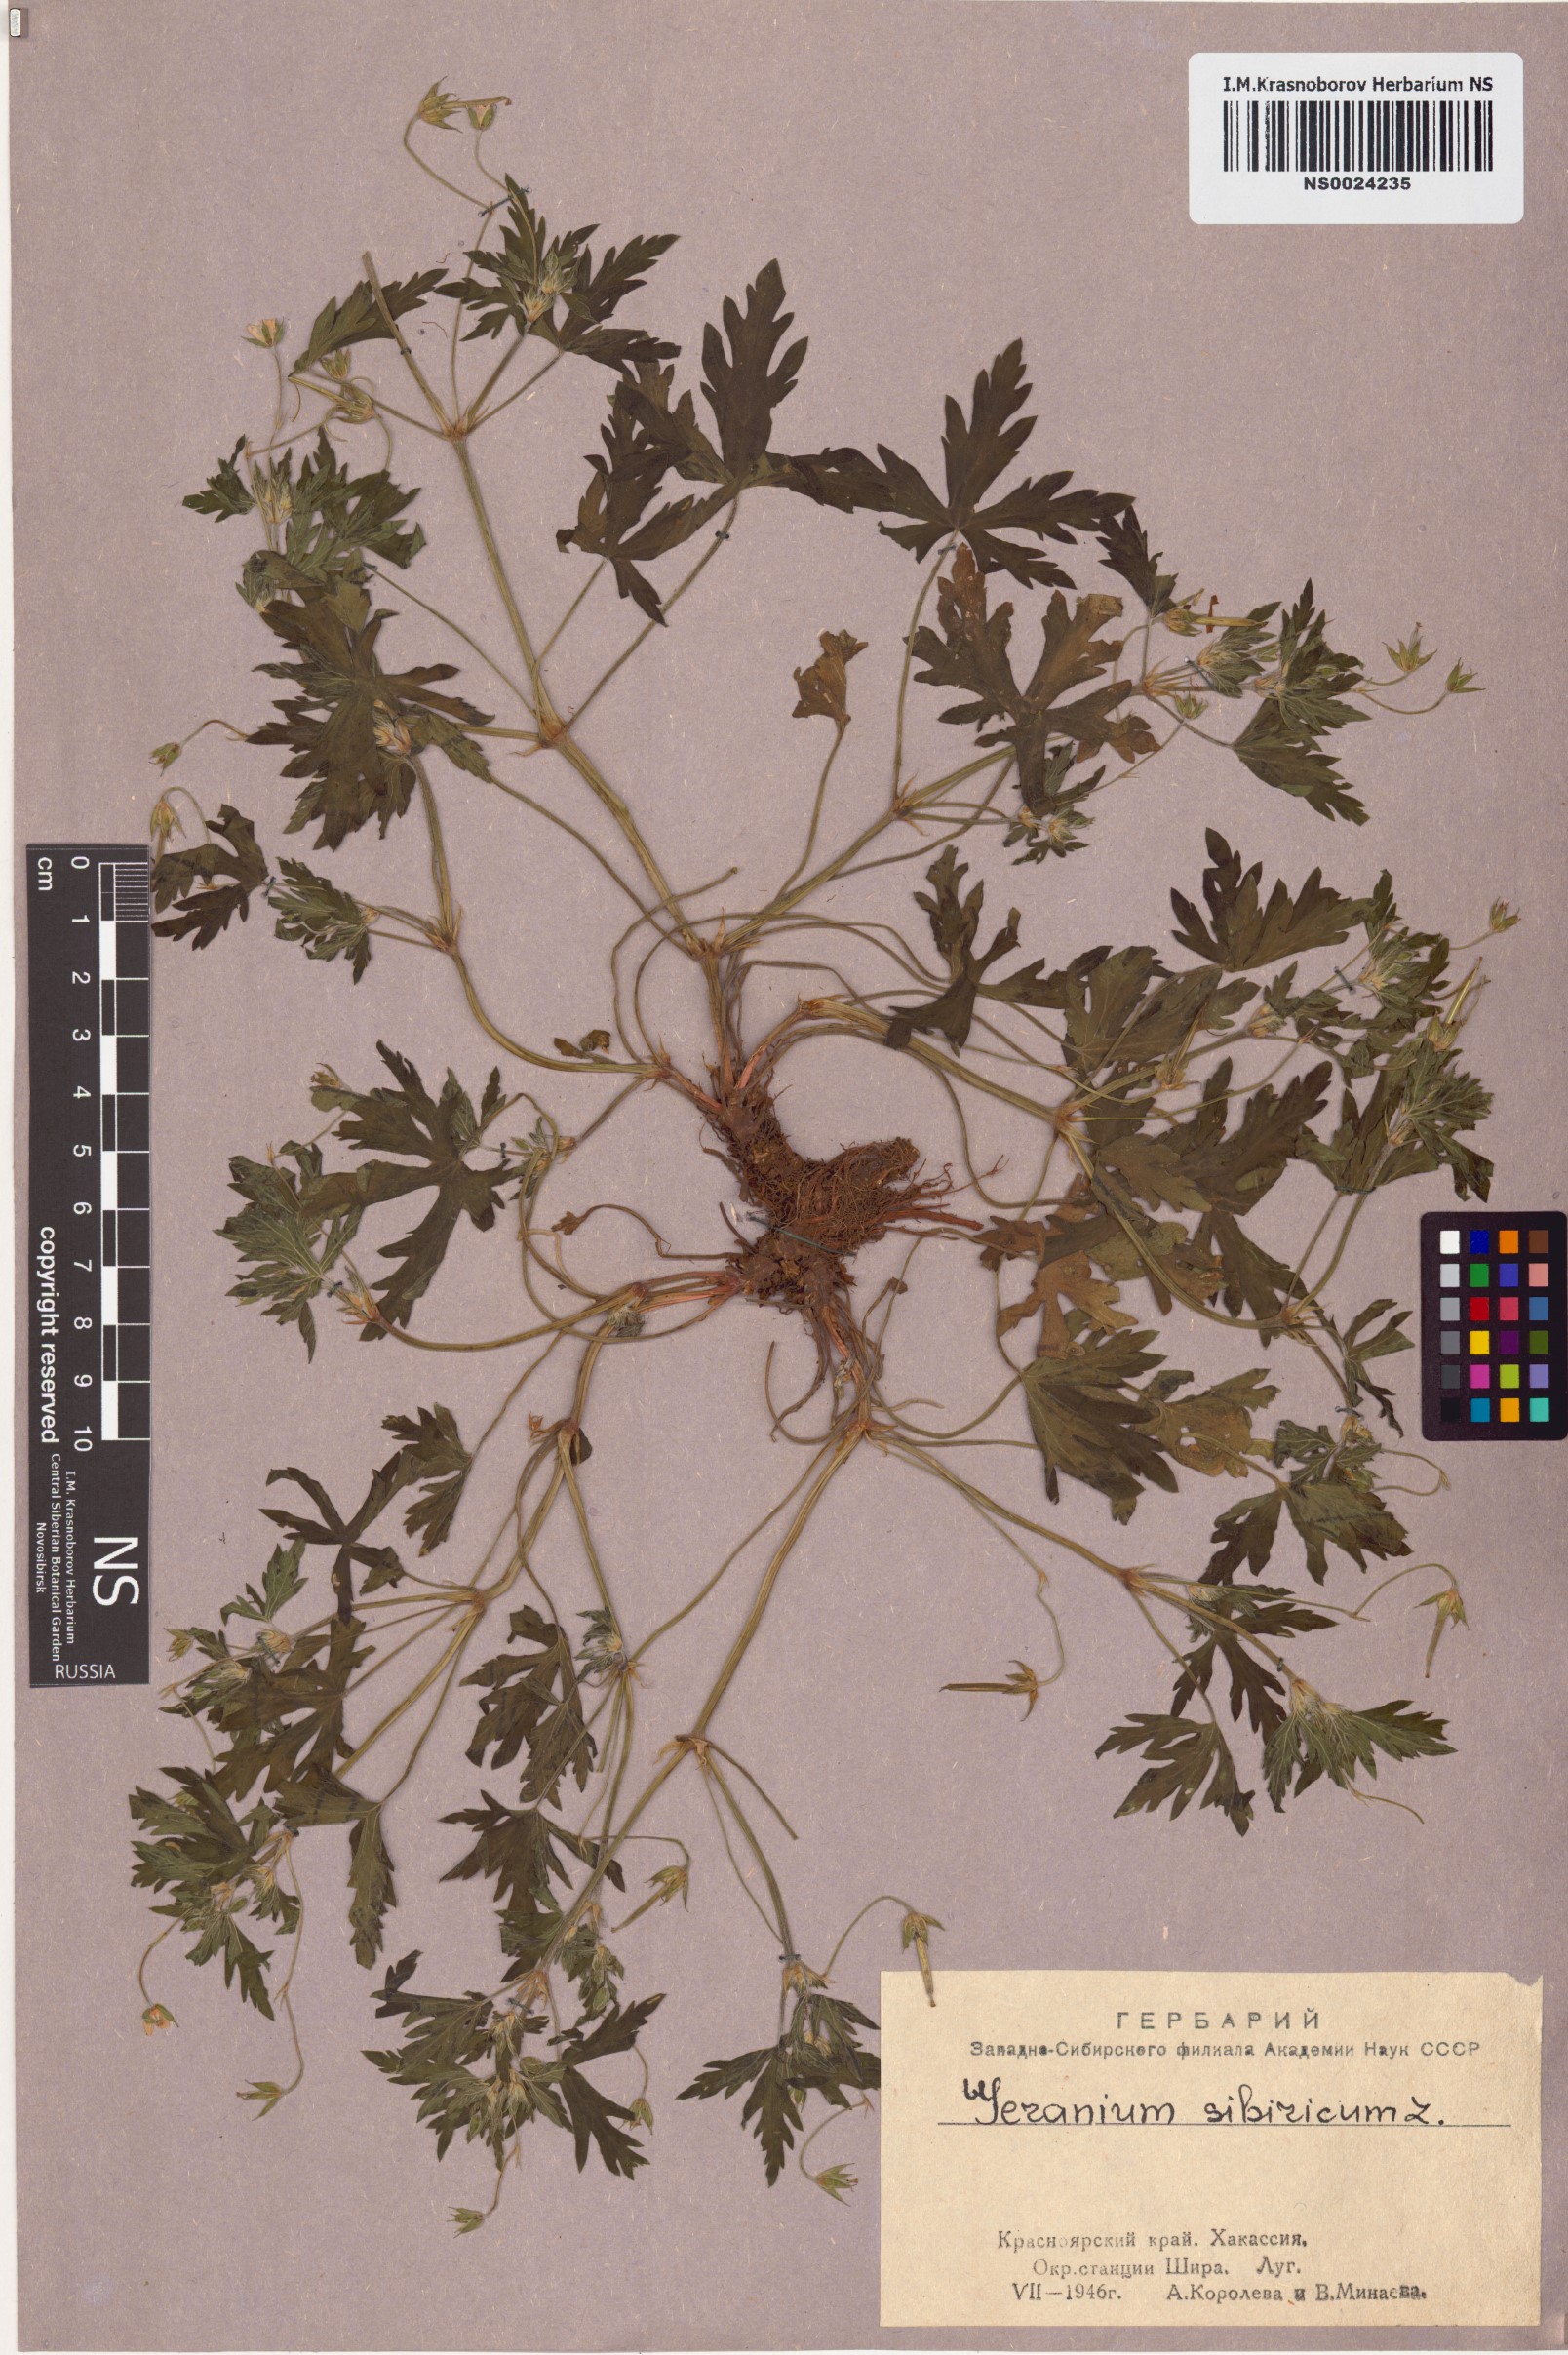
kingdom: Plantae
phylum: Tracheophyta
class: Magnoliopsida
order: Geraniales
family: Geraniaceae
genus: Geranium
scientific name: Geranium sibiricum
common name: Siberian crane's-bill
